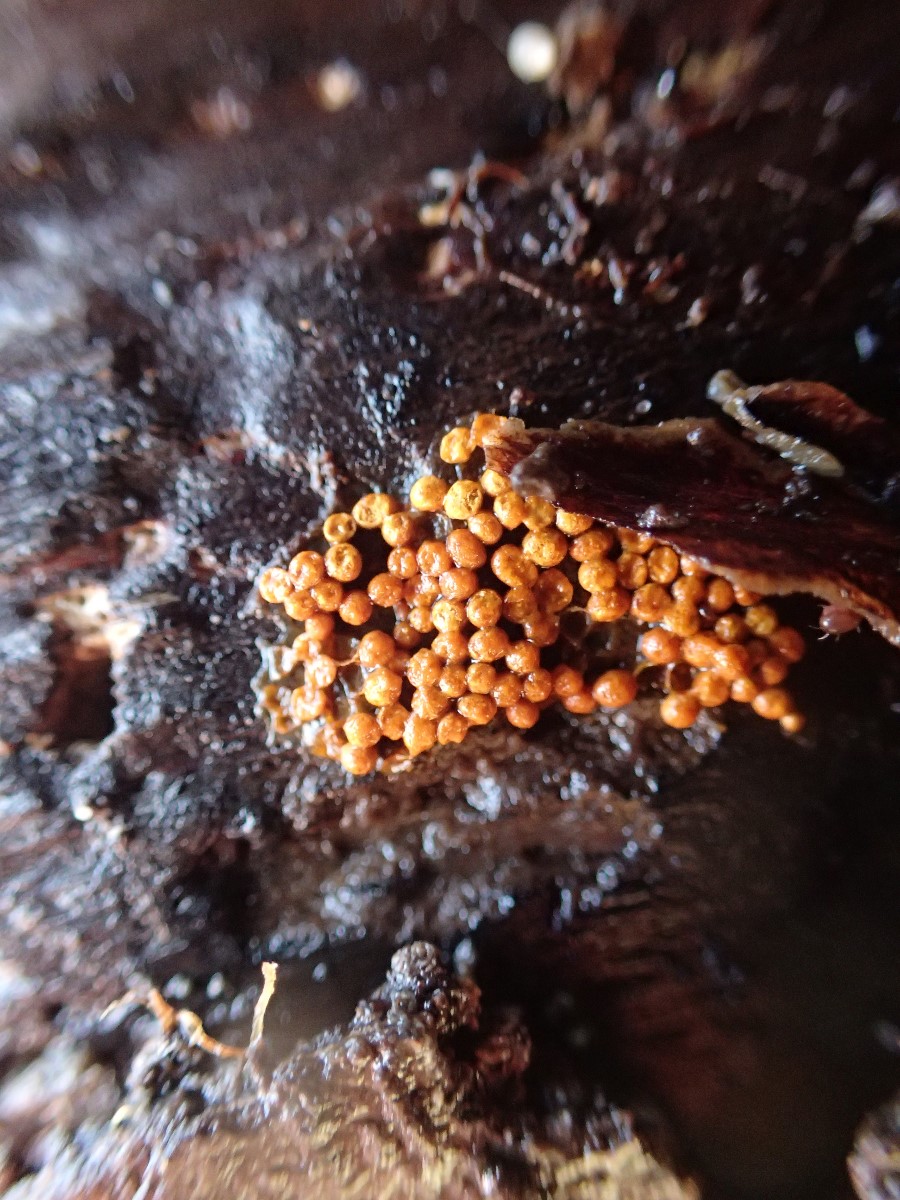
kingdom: Protozoa
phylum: Mycetozoa
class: Myxomycetes
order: Trichiales
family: Trichiaceae
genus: Trichia
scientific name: Trichia scabra
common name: tæppe-hårbold
